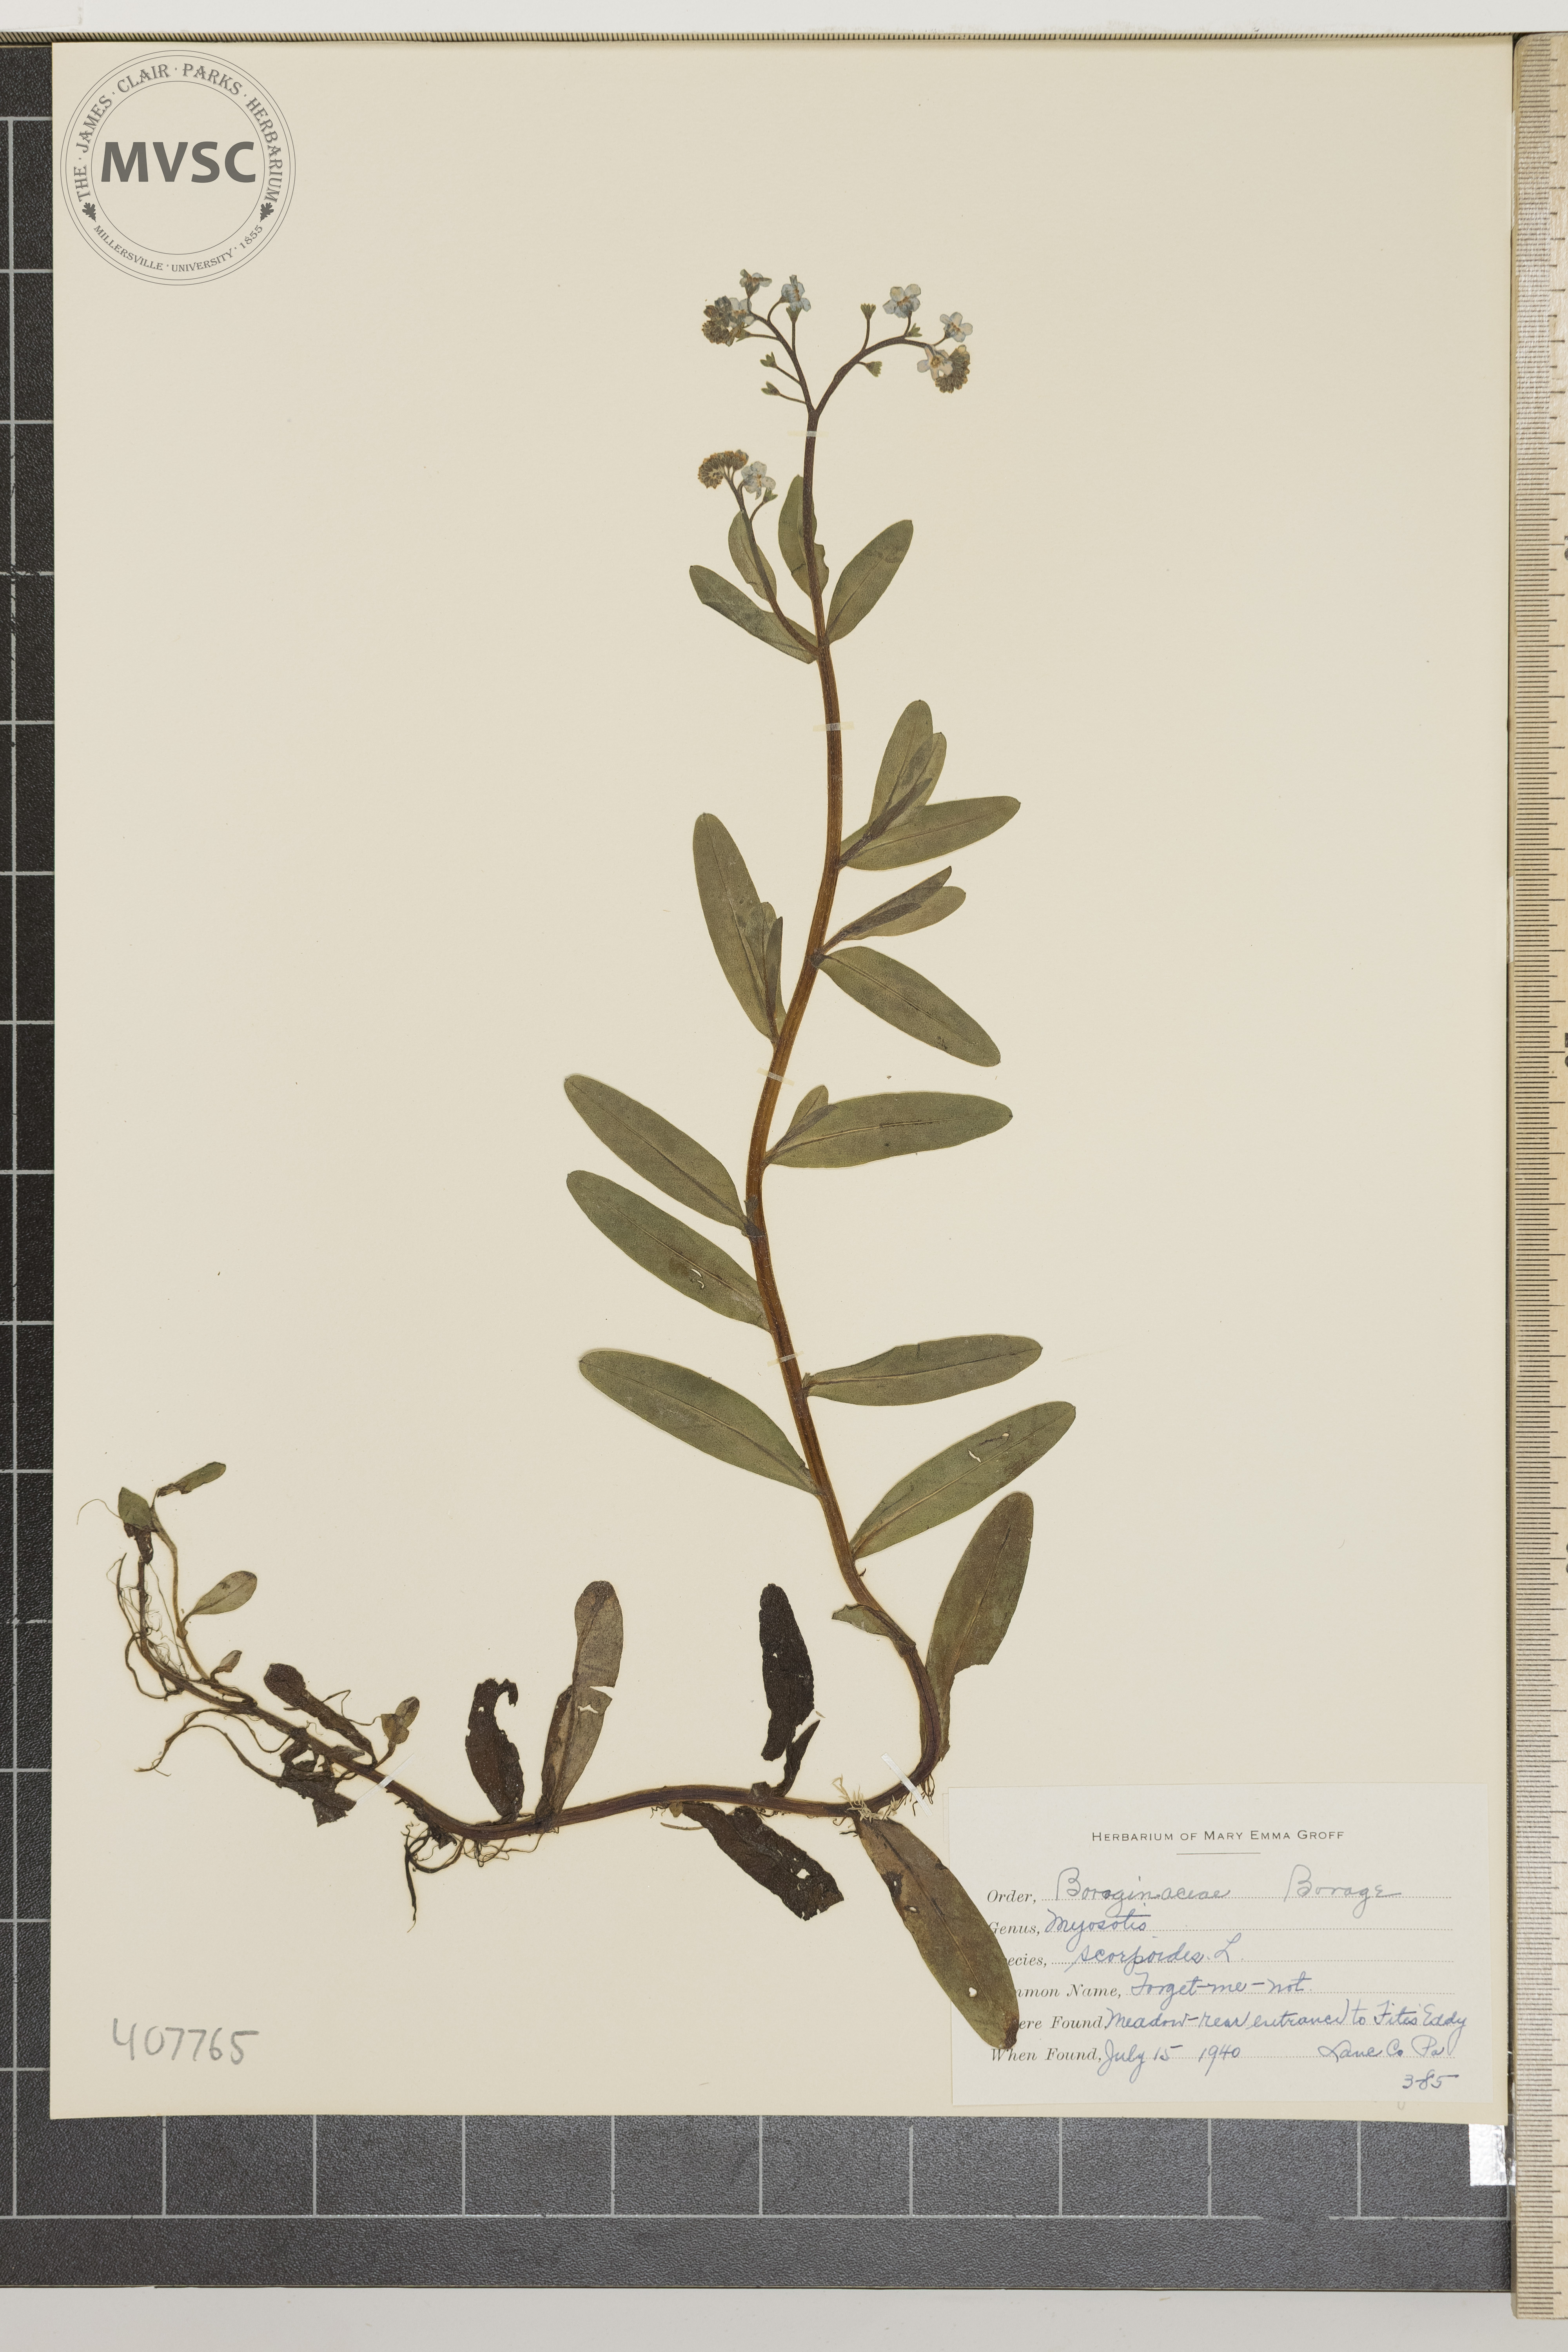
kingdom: Plantae
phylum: Tracheophyta
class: Magnoliopsida
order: Boraginales
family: Boraginaceae
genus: Myosotis
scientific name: Myosotis scorpioides
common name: forget-me-not
